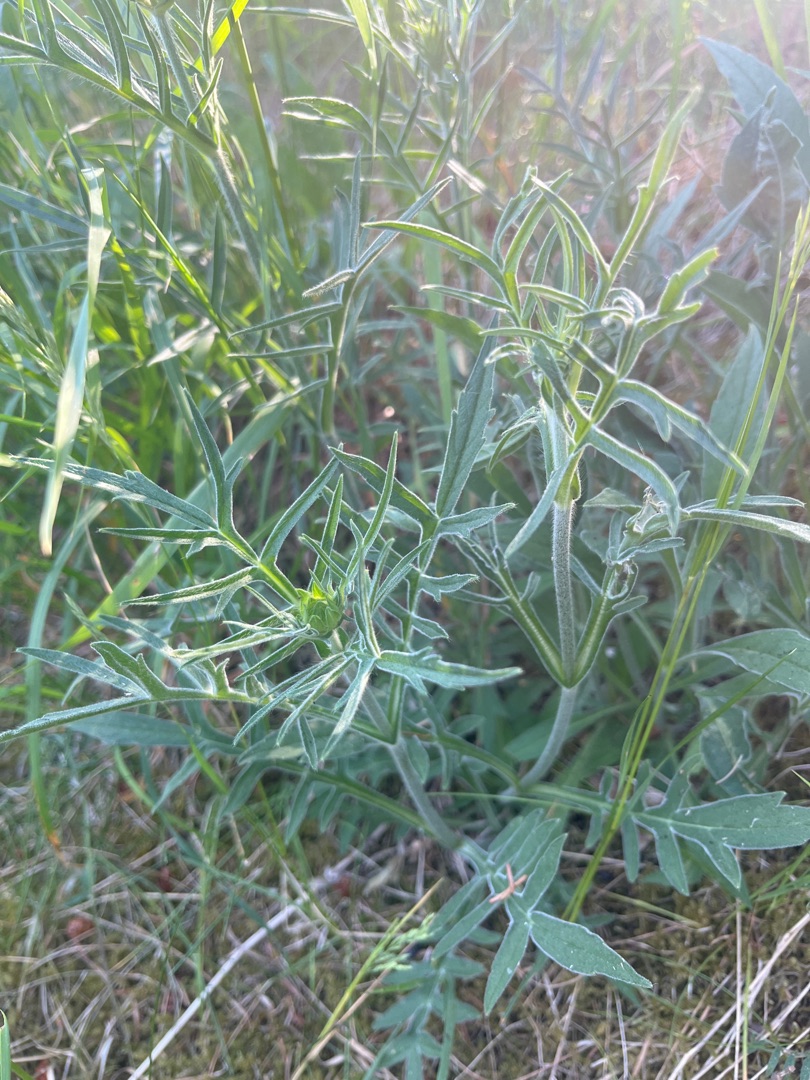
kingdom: Plantae
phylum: Tracheophyta
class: Magnoliopsida
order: Dipsacales
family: Caprifoliaceae
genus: Knautia
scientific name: Knautia arvensis
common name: Blåhat
